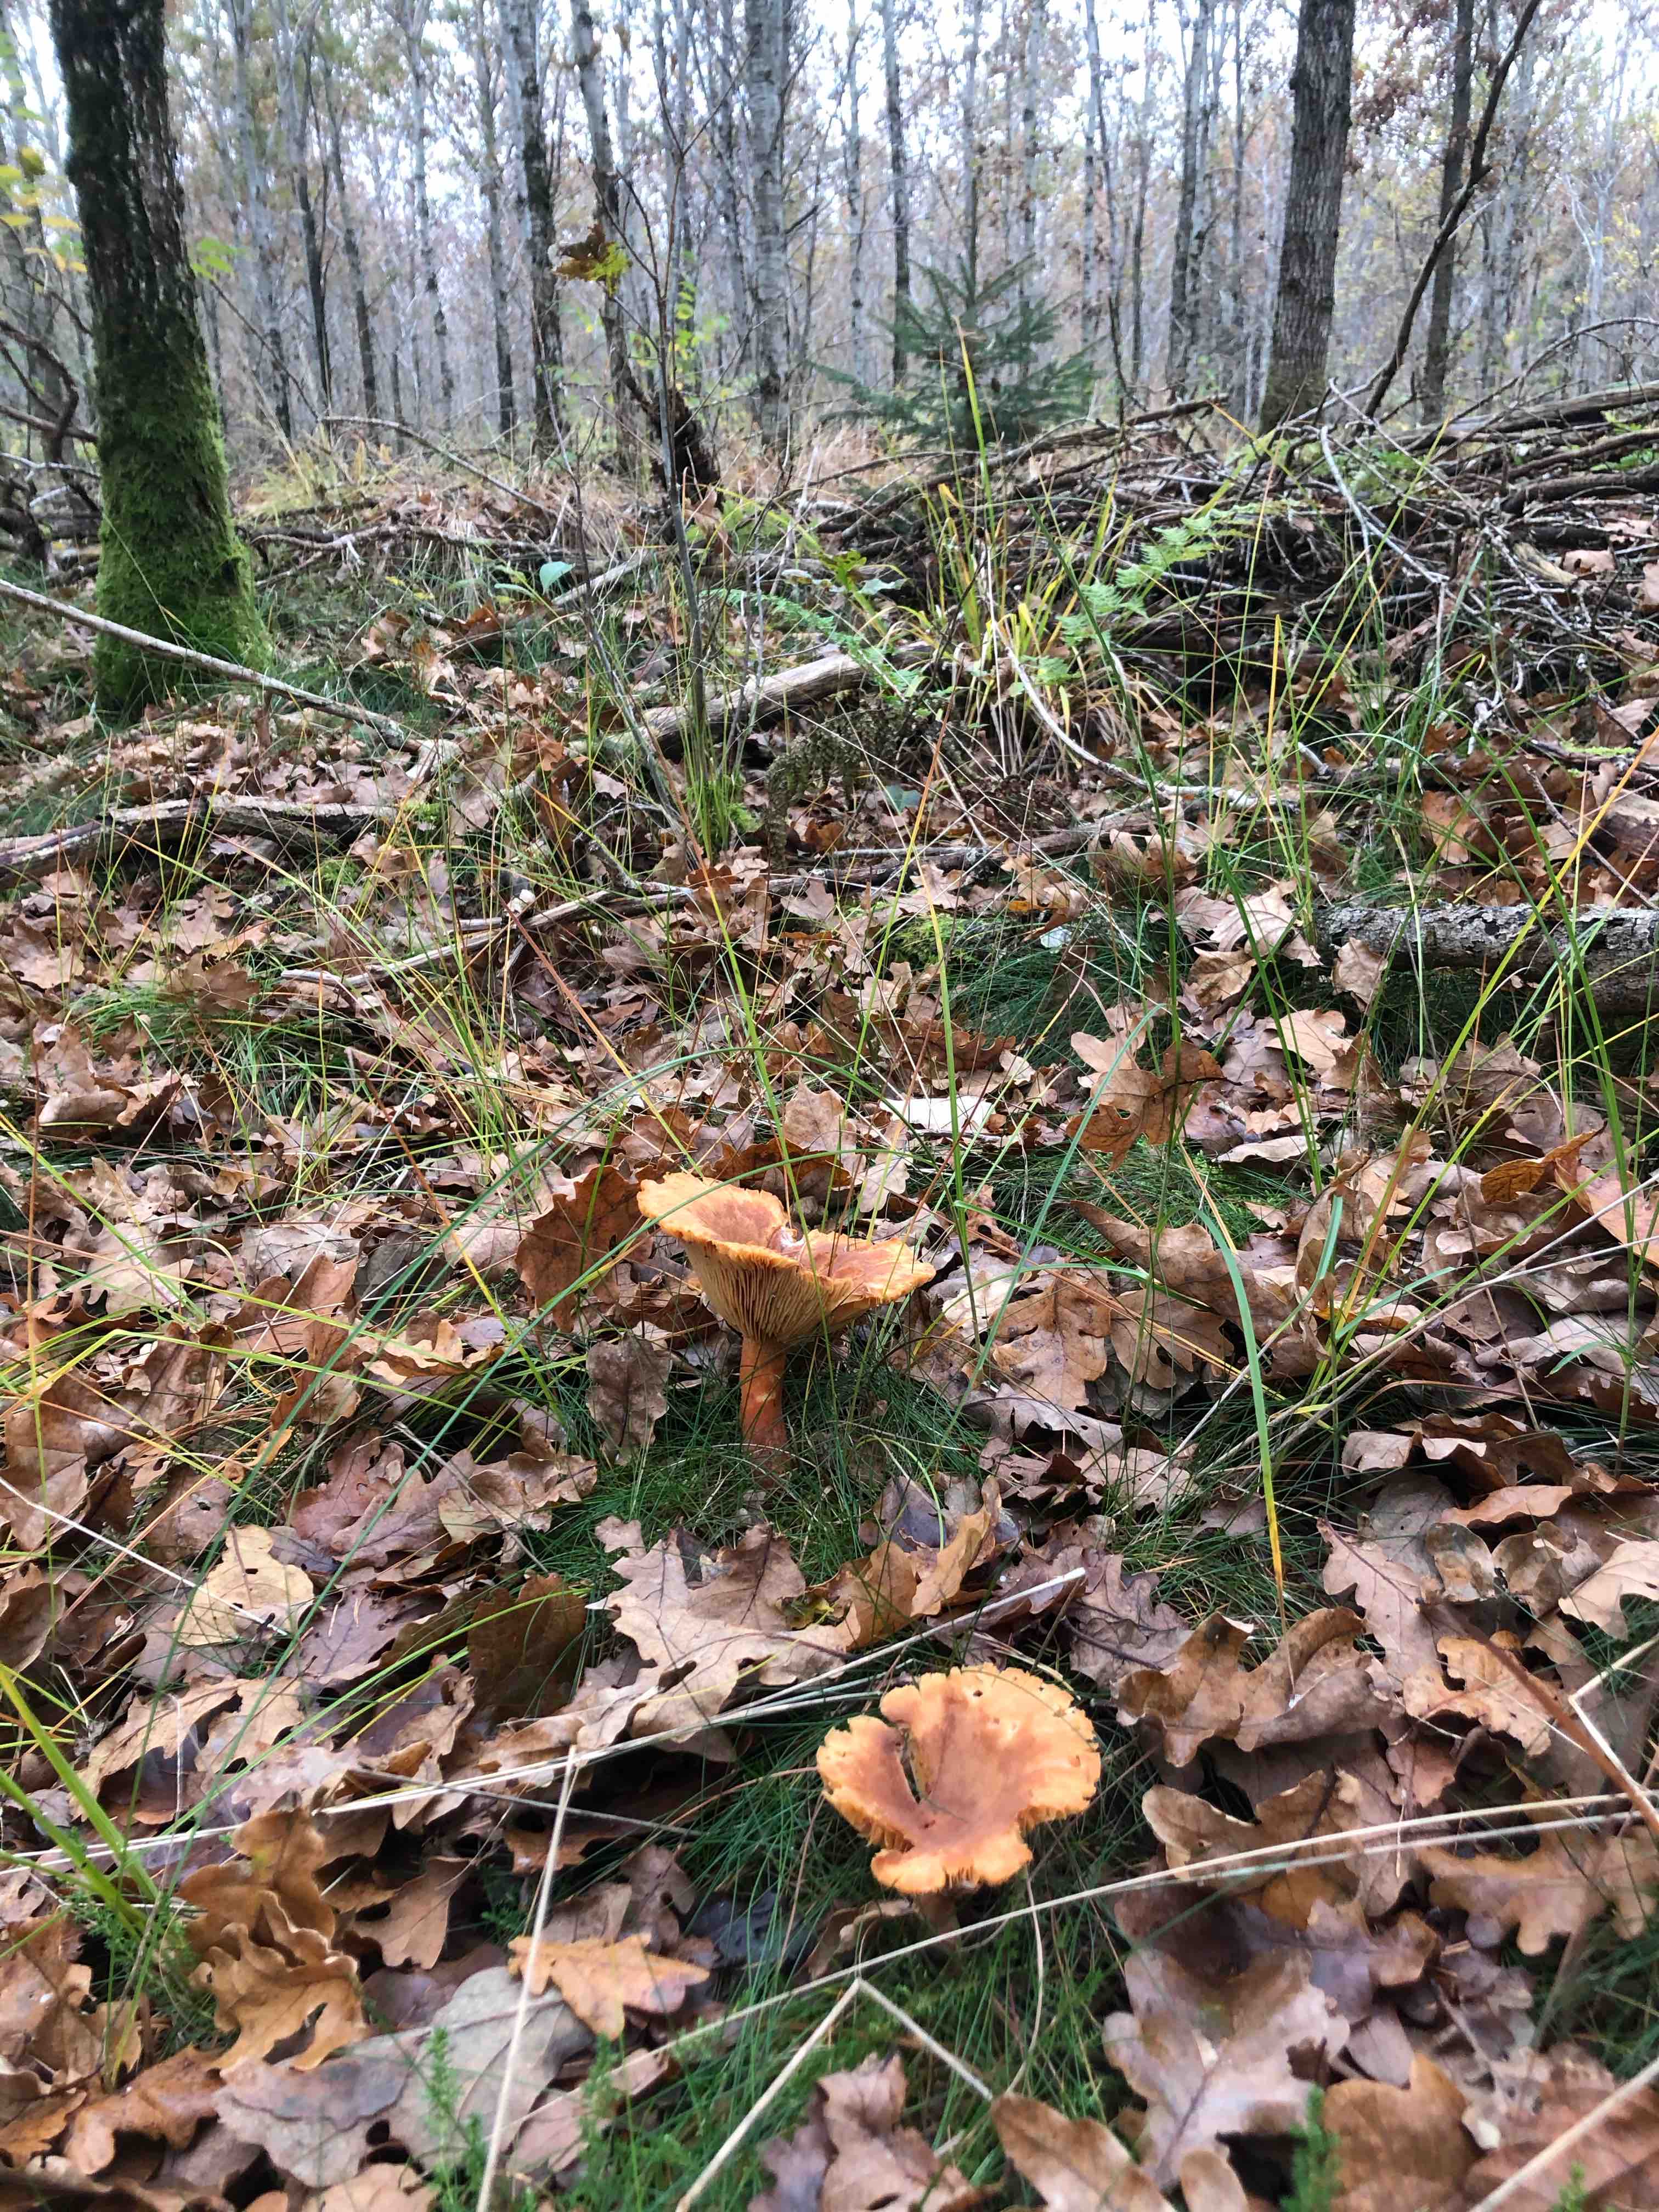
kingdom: Fungi
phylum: Basidiomycota
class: Agaricomycetes
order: Russulales
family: Russulaceae
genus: Lactarius
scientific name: Lactarius helvus
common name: mose-mælkehat
